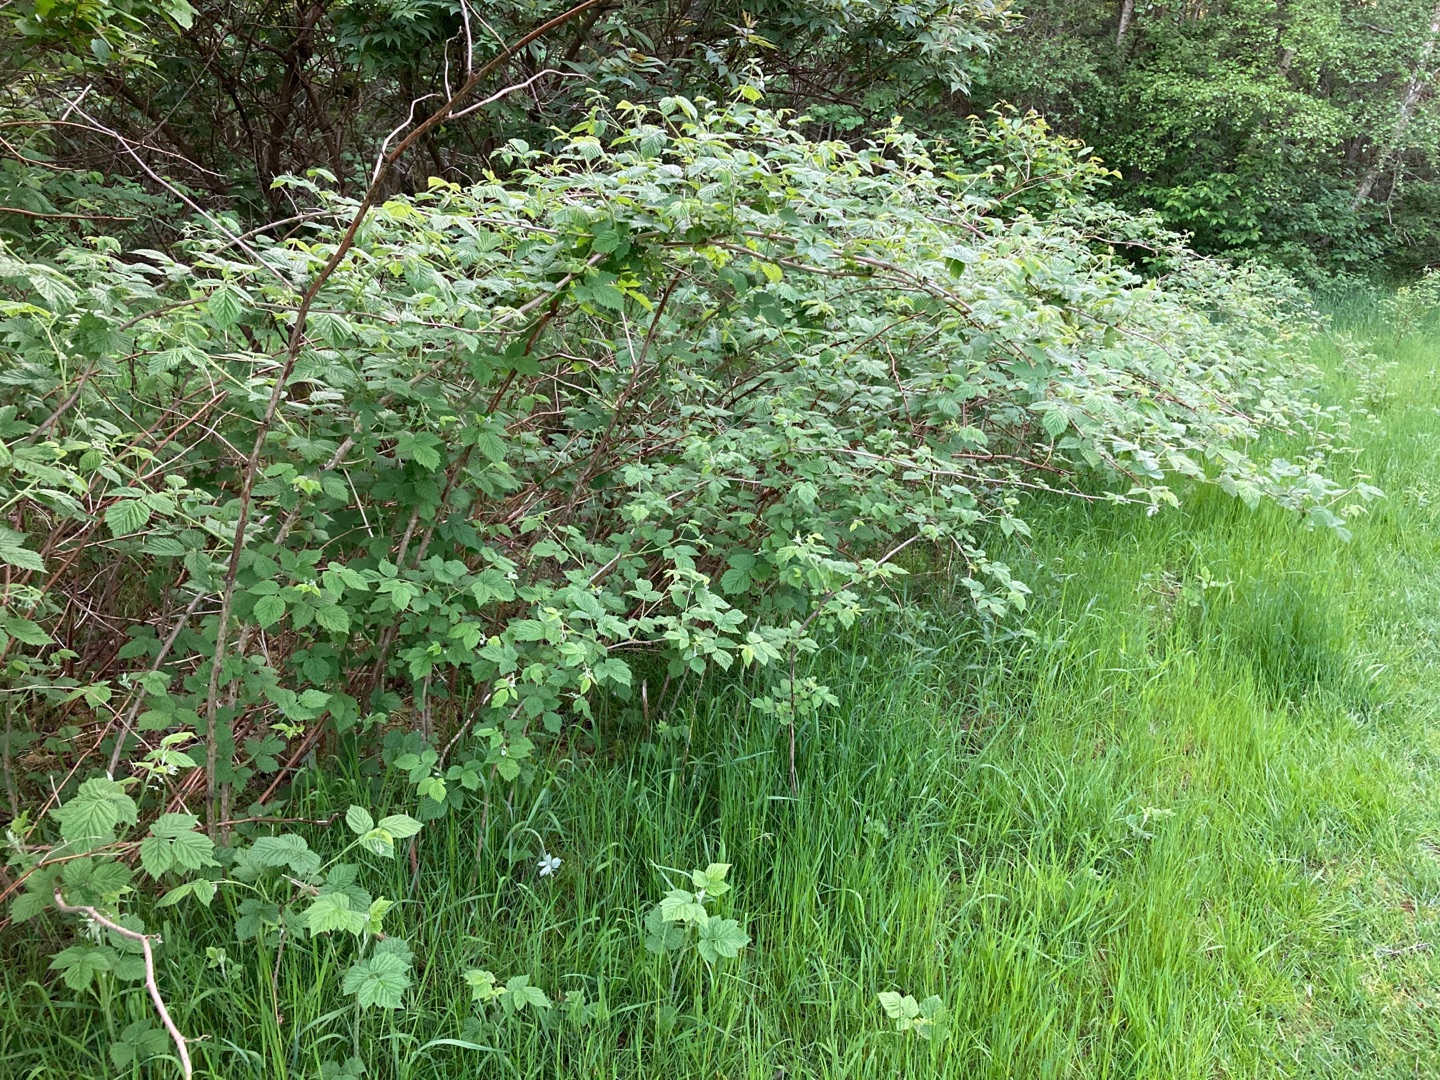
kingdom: Plantae
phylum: Tracheophyta
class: Magnoliopsida
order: Rosales
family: Rosaceae
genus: Rubus
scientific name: Rubus idaeus
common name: Hindbær
